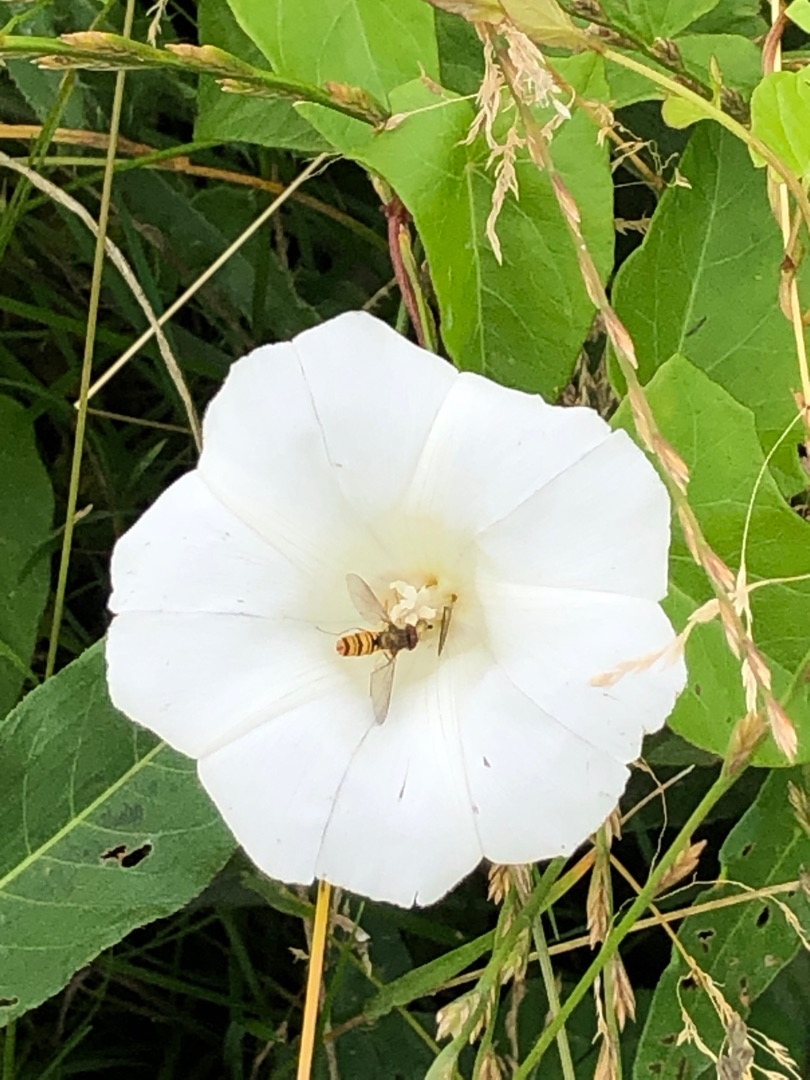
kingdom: Animalia
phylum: Arthropoda
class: Insecta
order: Diptera
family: Syrphidae
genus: Episyrphus
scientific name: Episyrphus balteatus
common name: Dobbeltbåndet svirreflue
